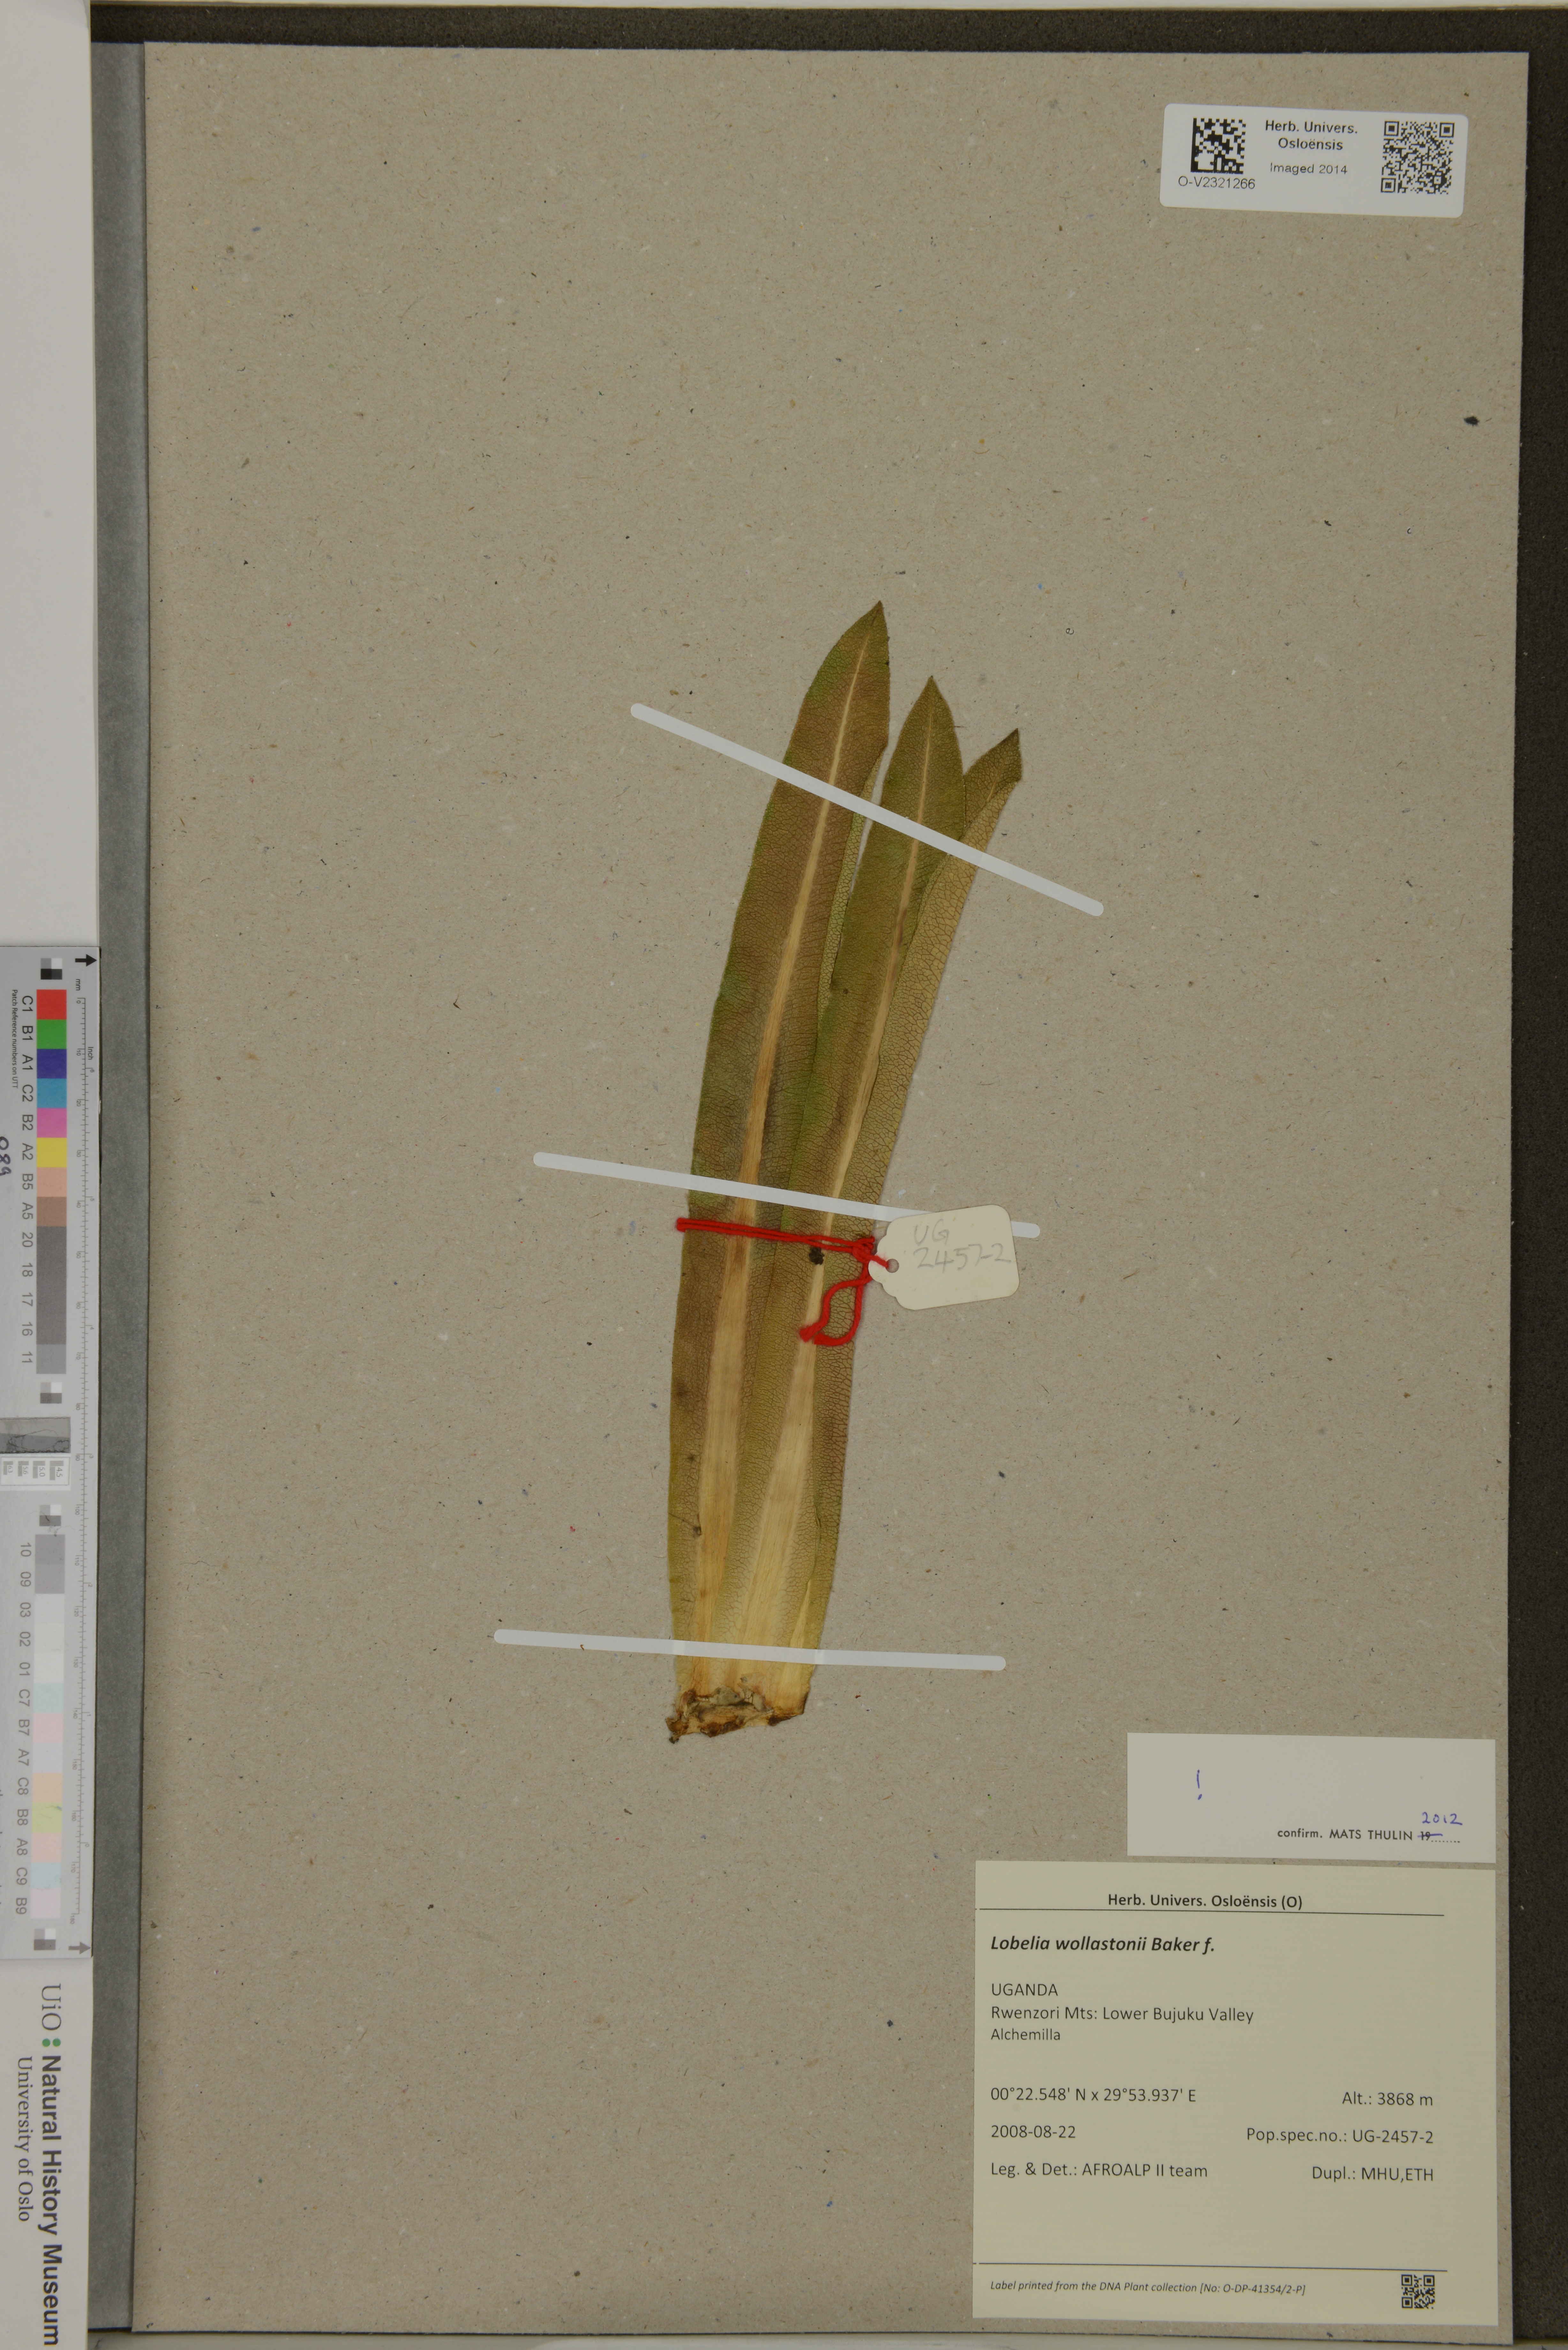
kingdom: Plantae
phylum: Tracheophyta
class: Magnoliopsida
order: Asterales
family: Campanulaceae
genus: Lobelia
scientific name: Lobelia wollastonii
